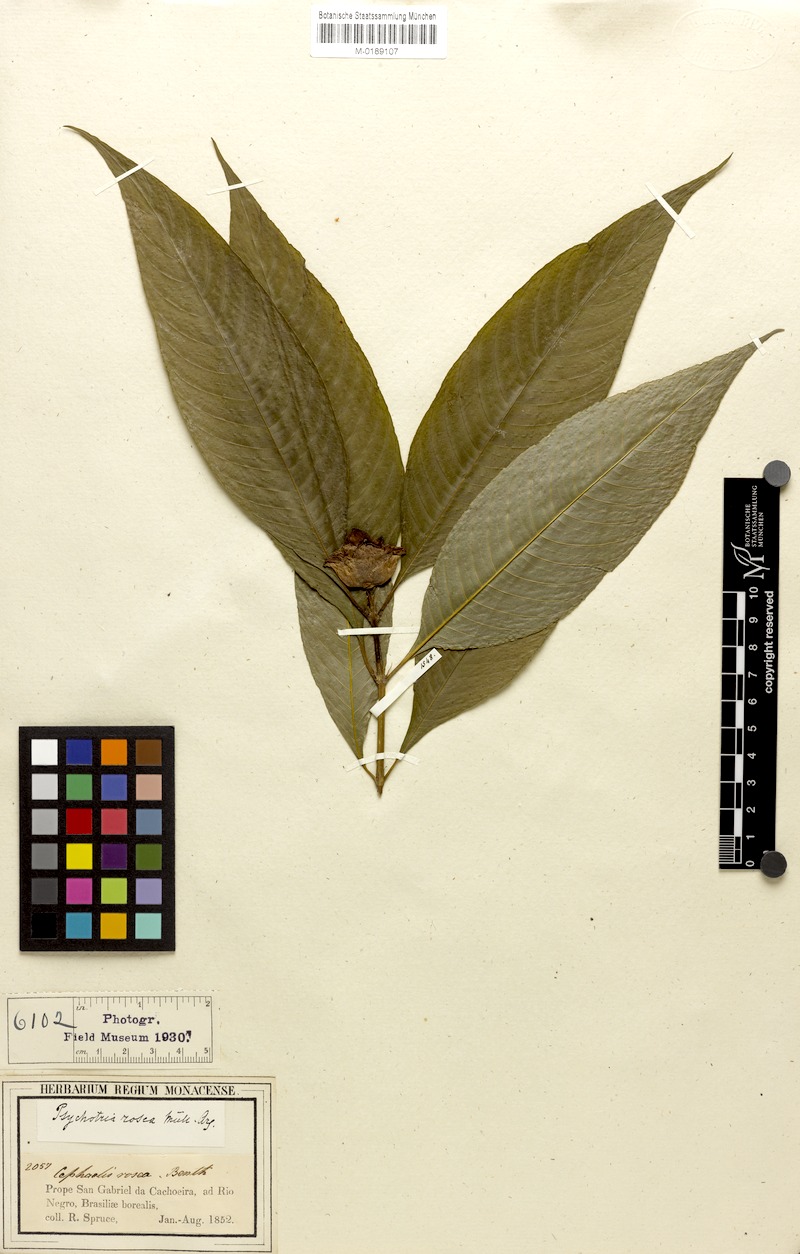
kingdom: Plantae
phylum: Tracheophyta
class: Magnoliopsida
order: Gentianales
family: Rubiaceae
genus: Palicourea
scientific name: Palicourea colorata
